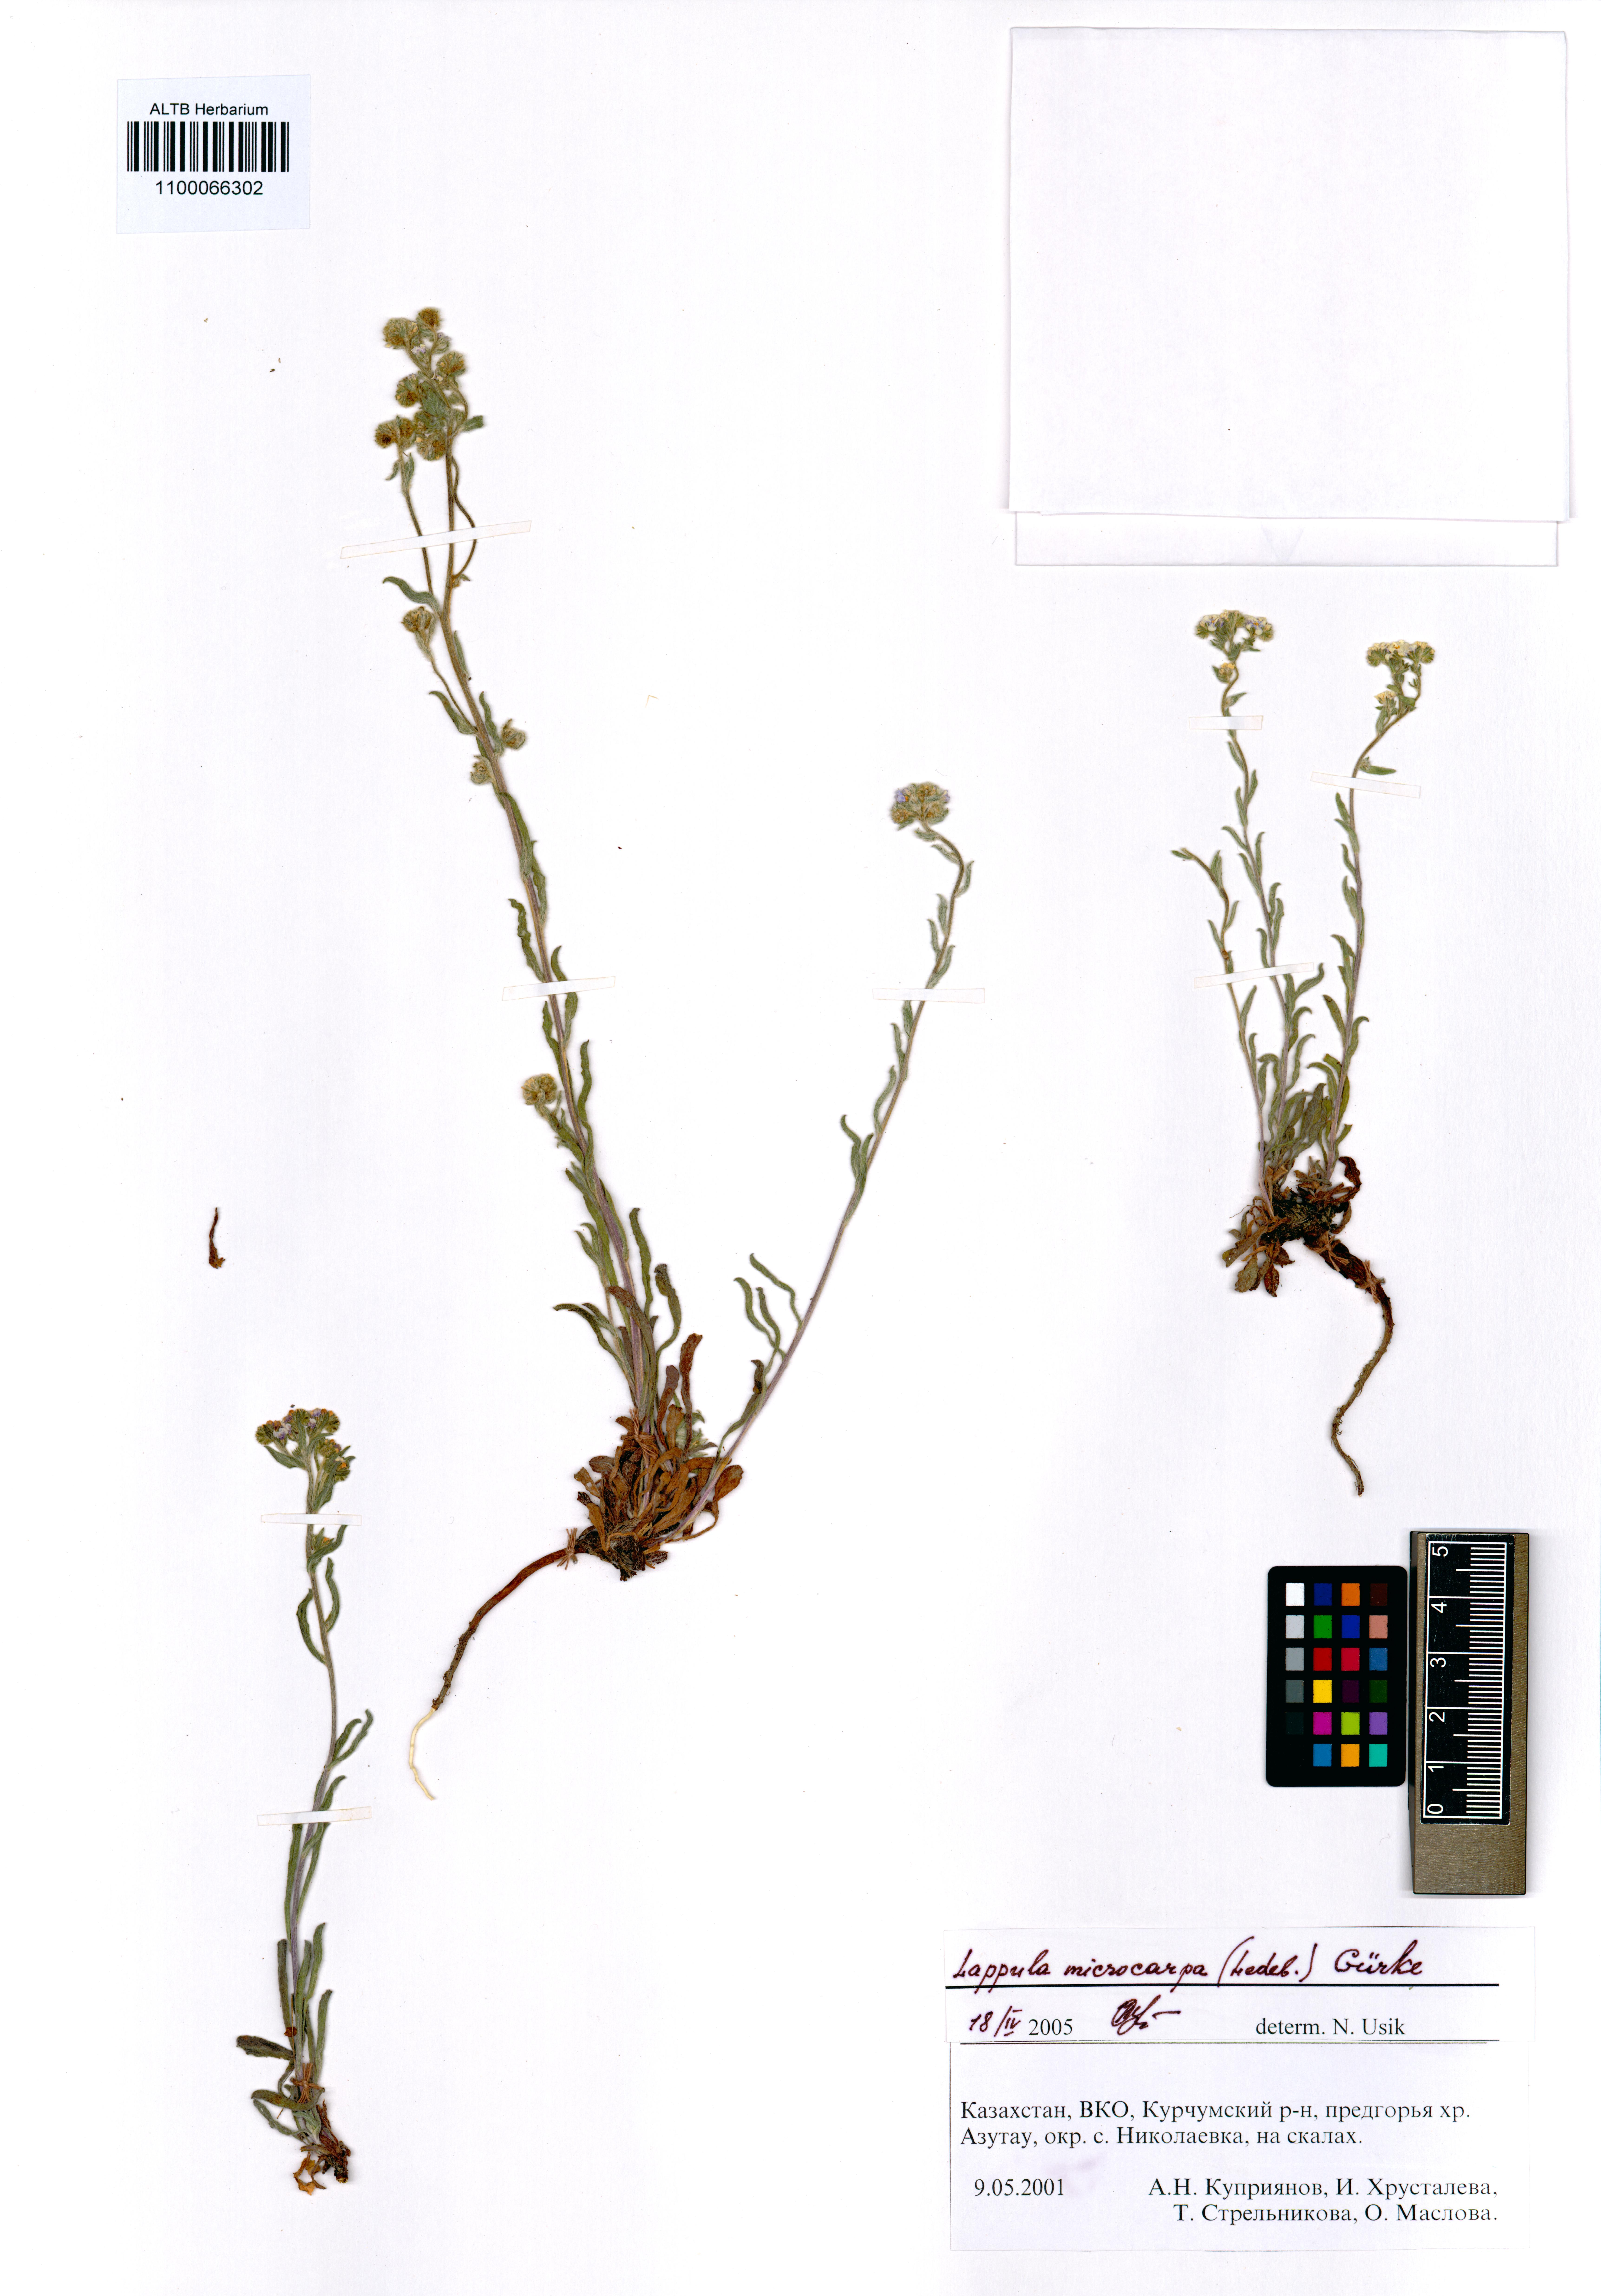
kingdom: Plantae
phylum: Tracheophyta
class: Magnoliopsida
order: Boraginales
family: Boraginaceae
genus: Lappula
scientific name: Lappula microcarpa
